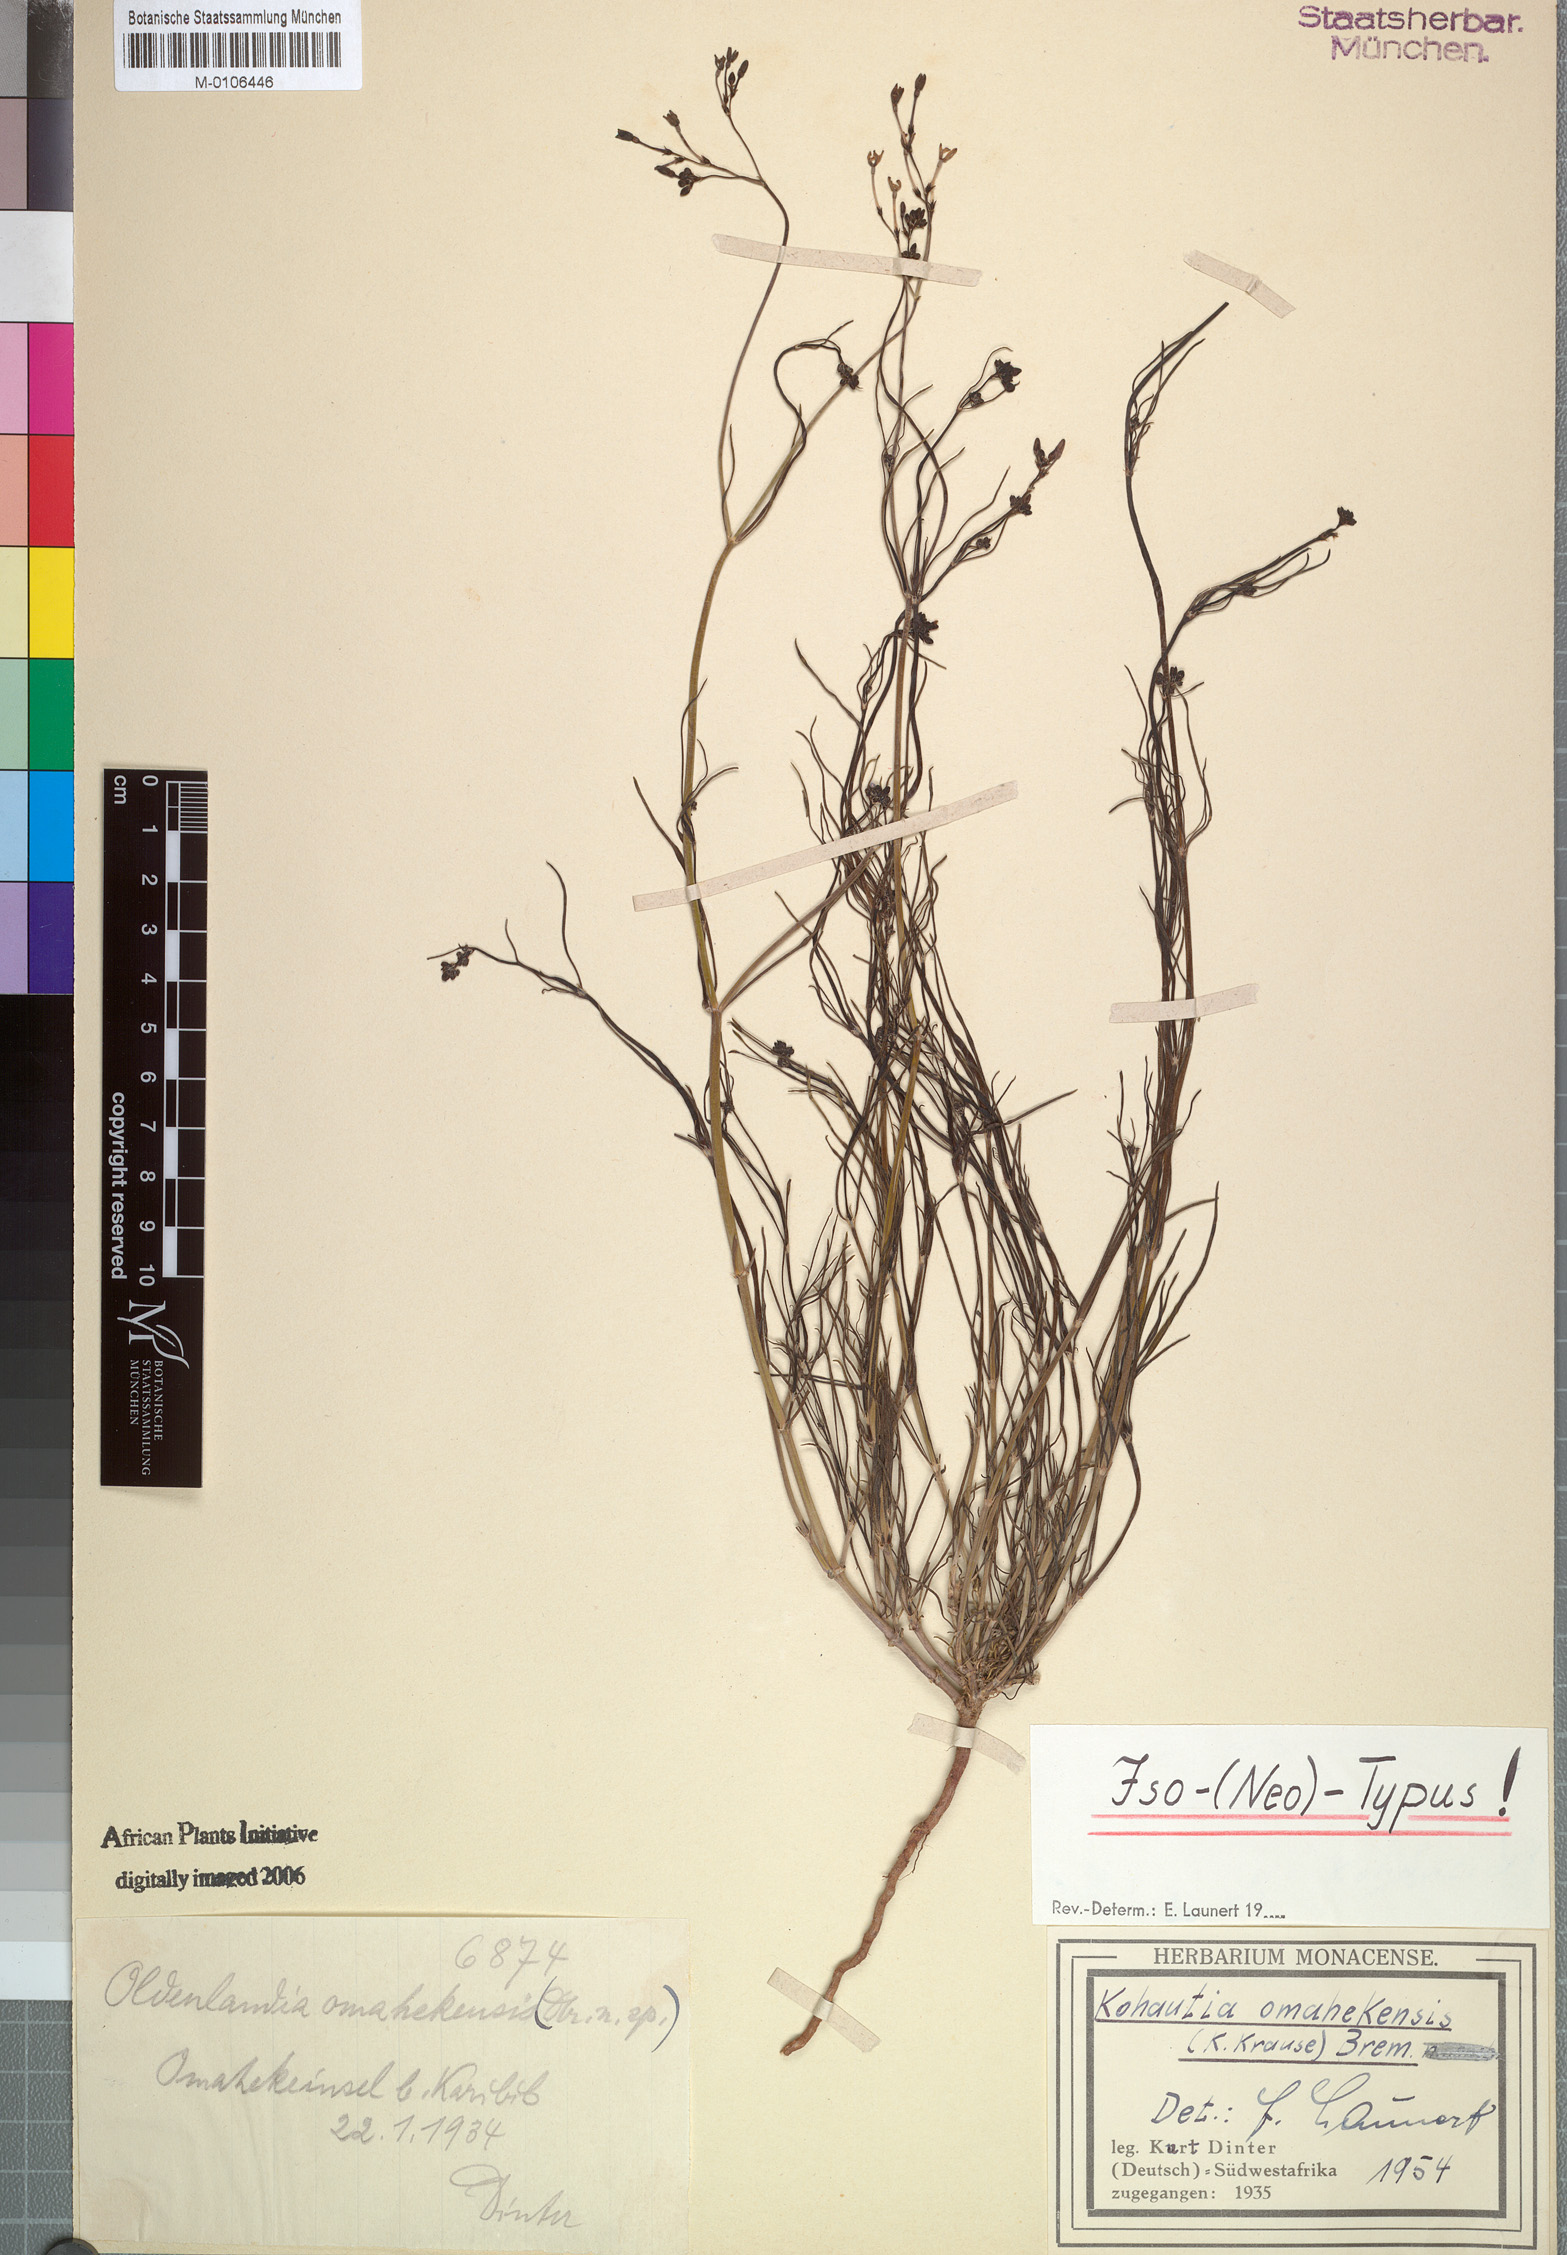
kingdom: Plantae
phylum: Tracheophyta
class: Magnoliopsida
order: Gentianales
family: Rubiaceae
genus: Kohautia
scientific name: Kohautia cynanchica
